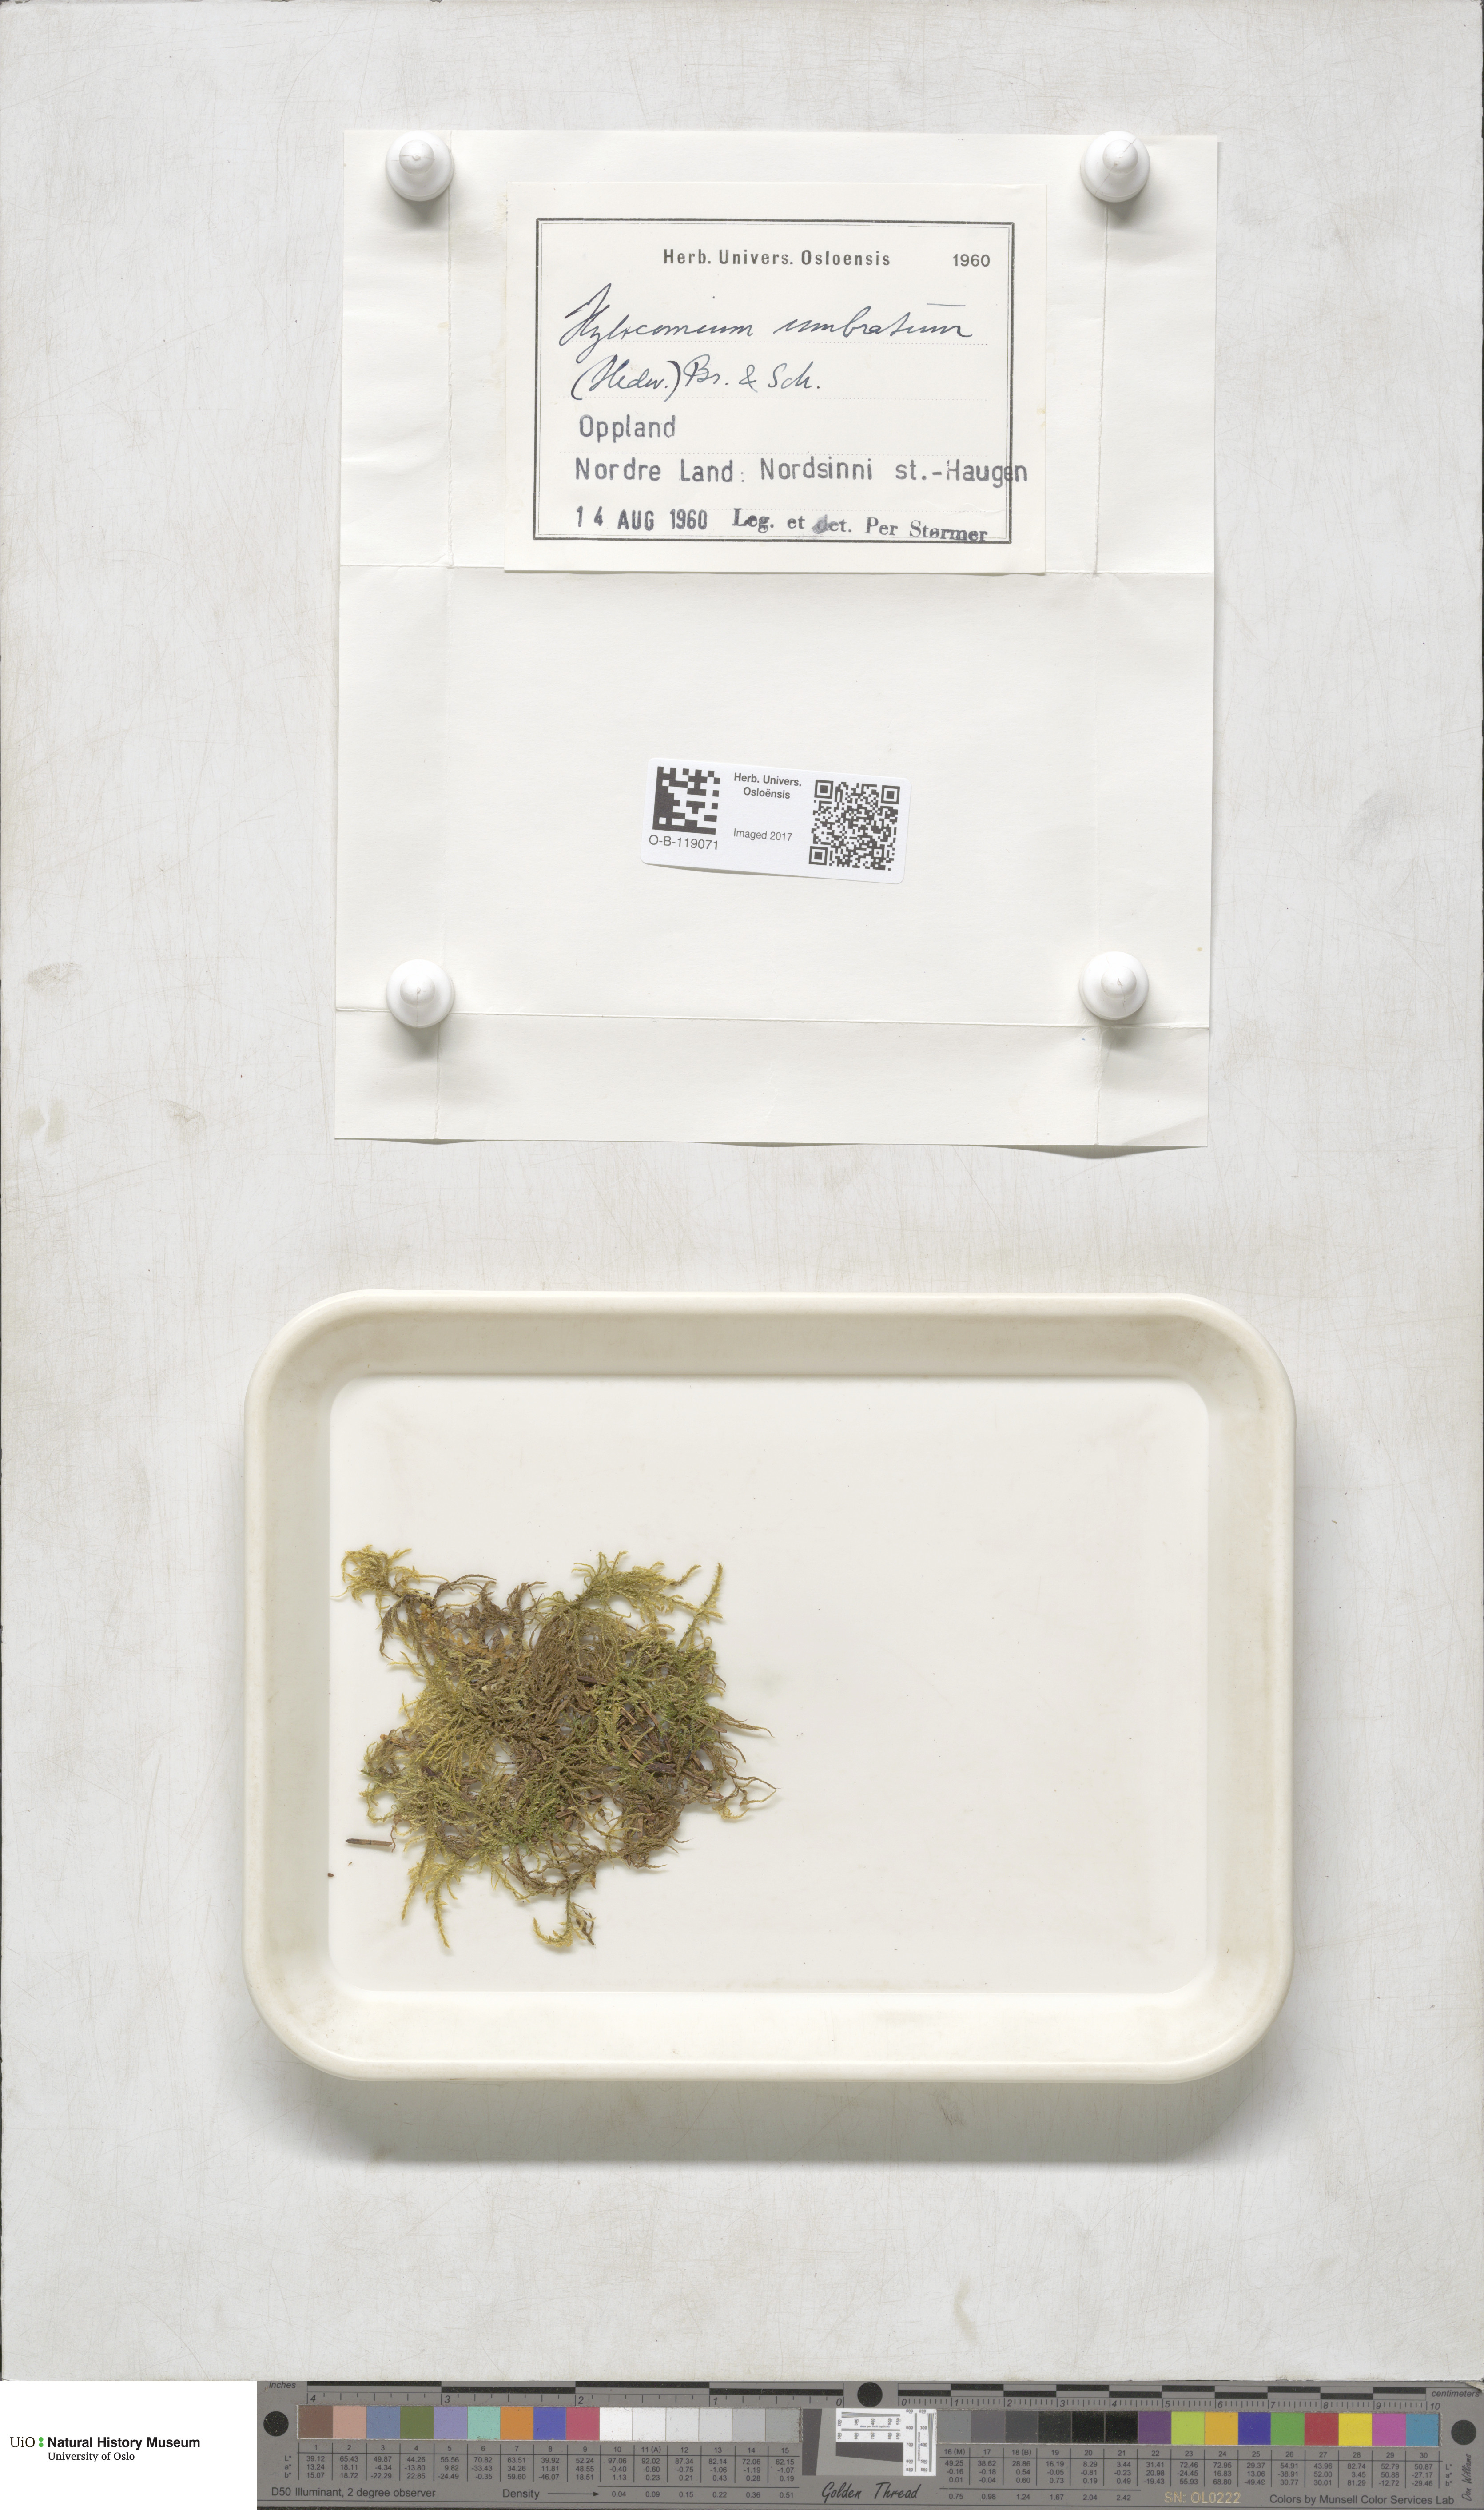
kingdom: Plantae
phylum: Bryophyta
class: Bryopsida
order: Hypnales
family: Hylocomiaceae
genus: Hylocomiastrum
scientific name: Hylocomiastrum umbratum
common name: Shaded woods moss
